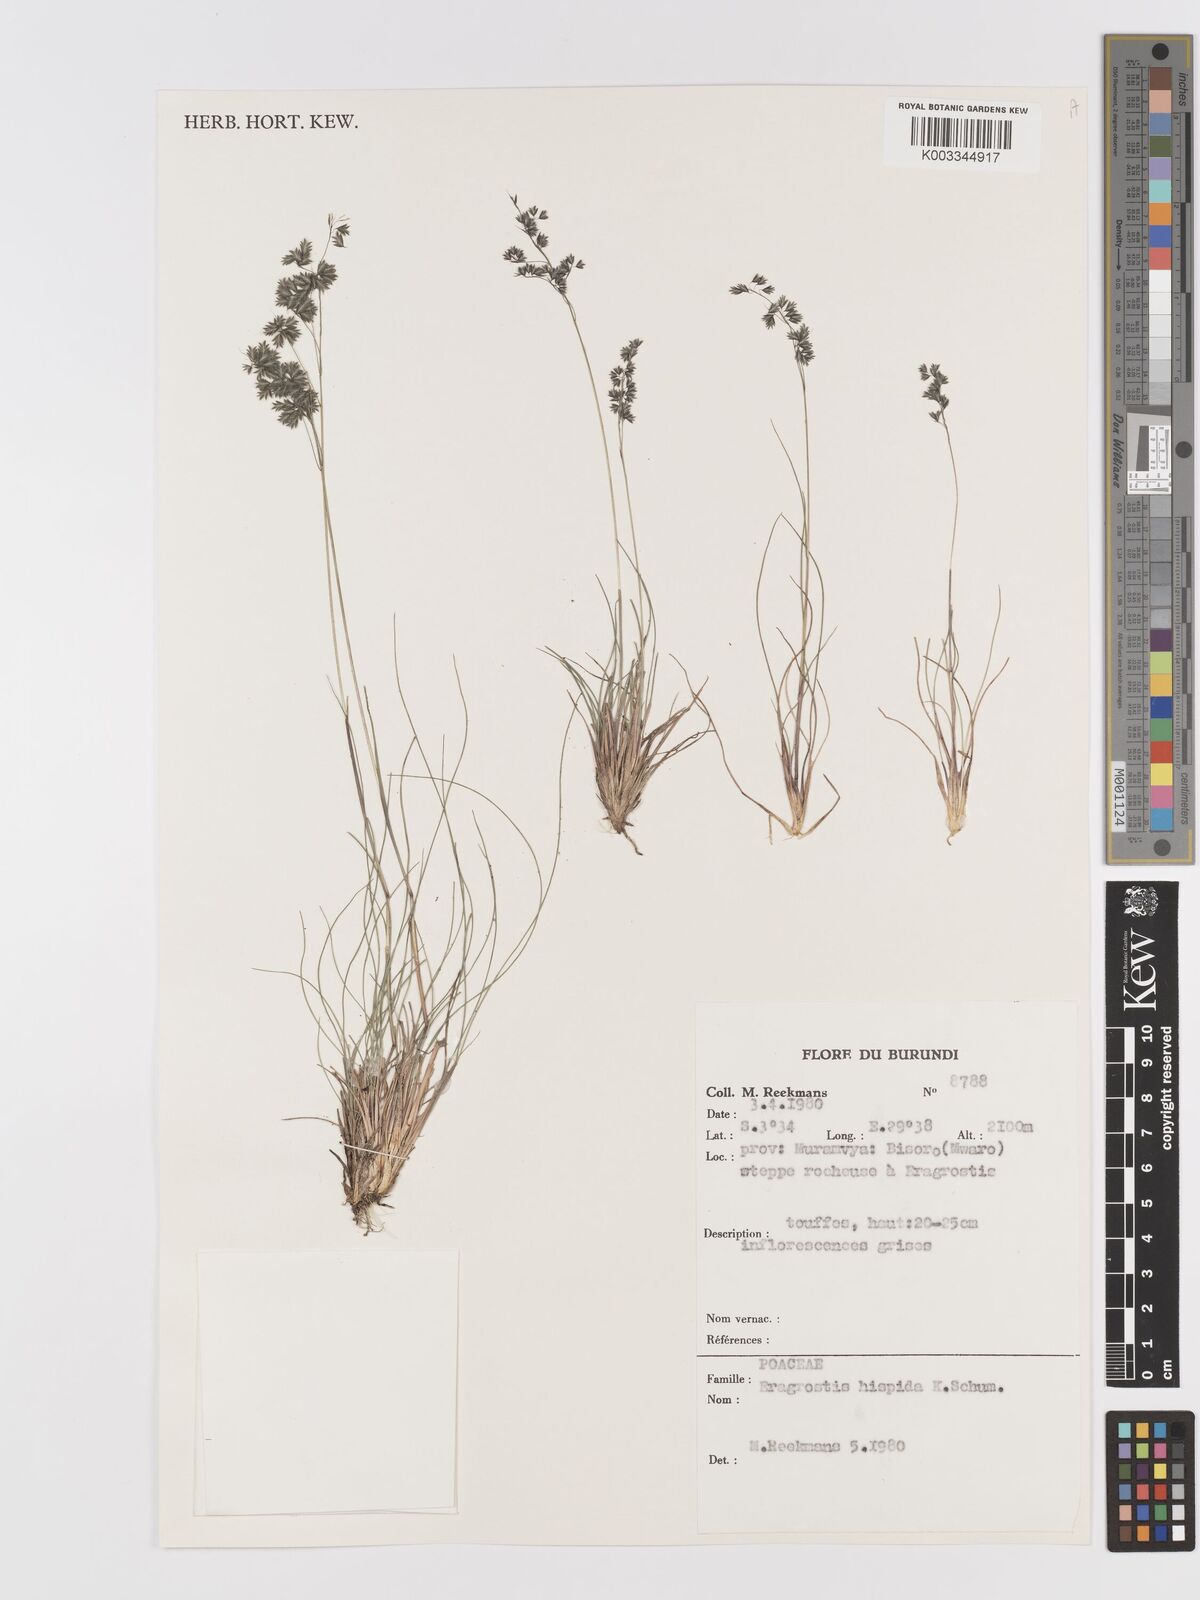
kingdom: Plantae
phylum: Tracheophyta
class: Liliopsida
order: Poales
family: Poaceae
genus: Eragrostis
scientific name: Eragrostis hispida
